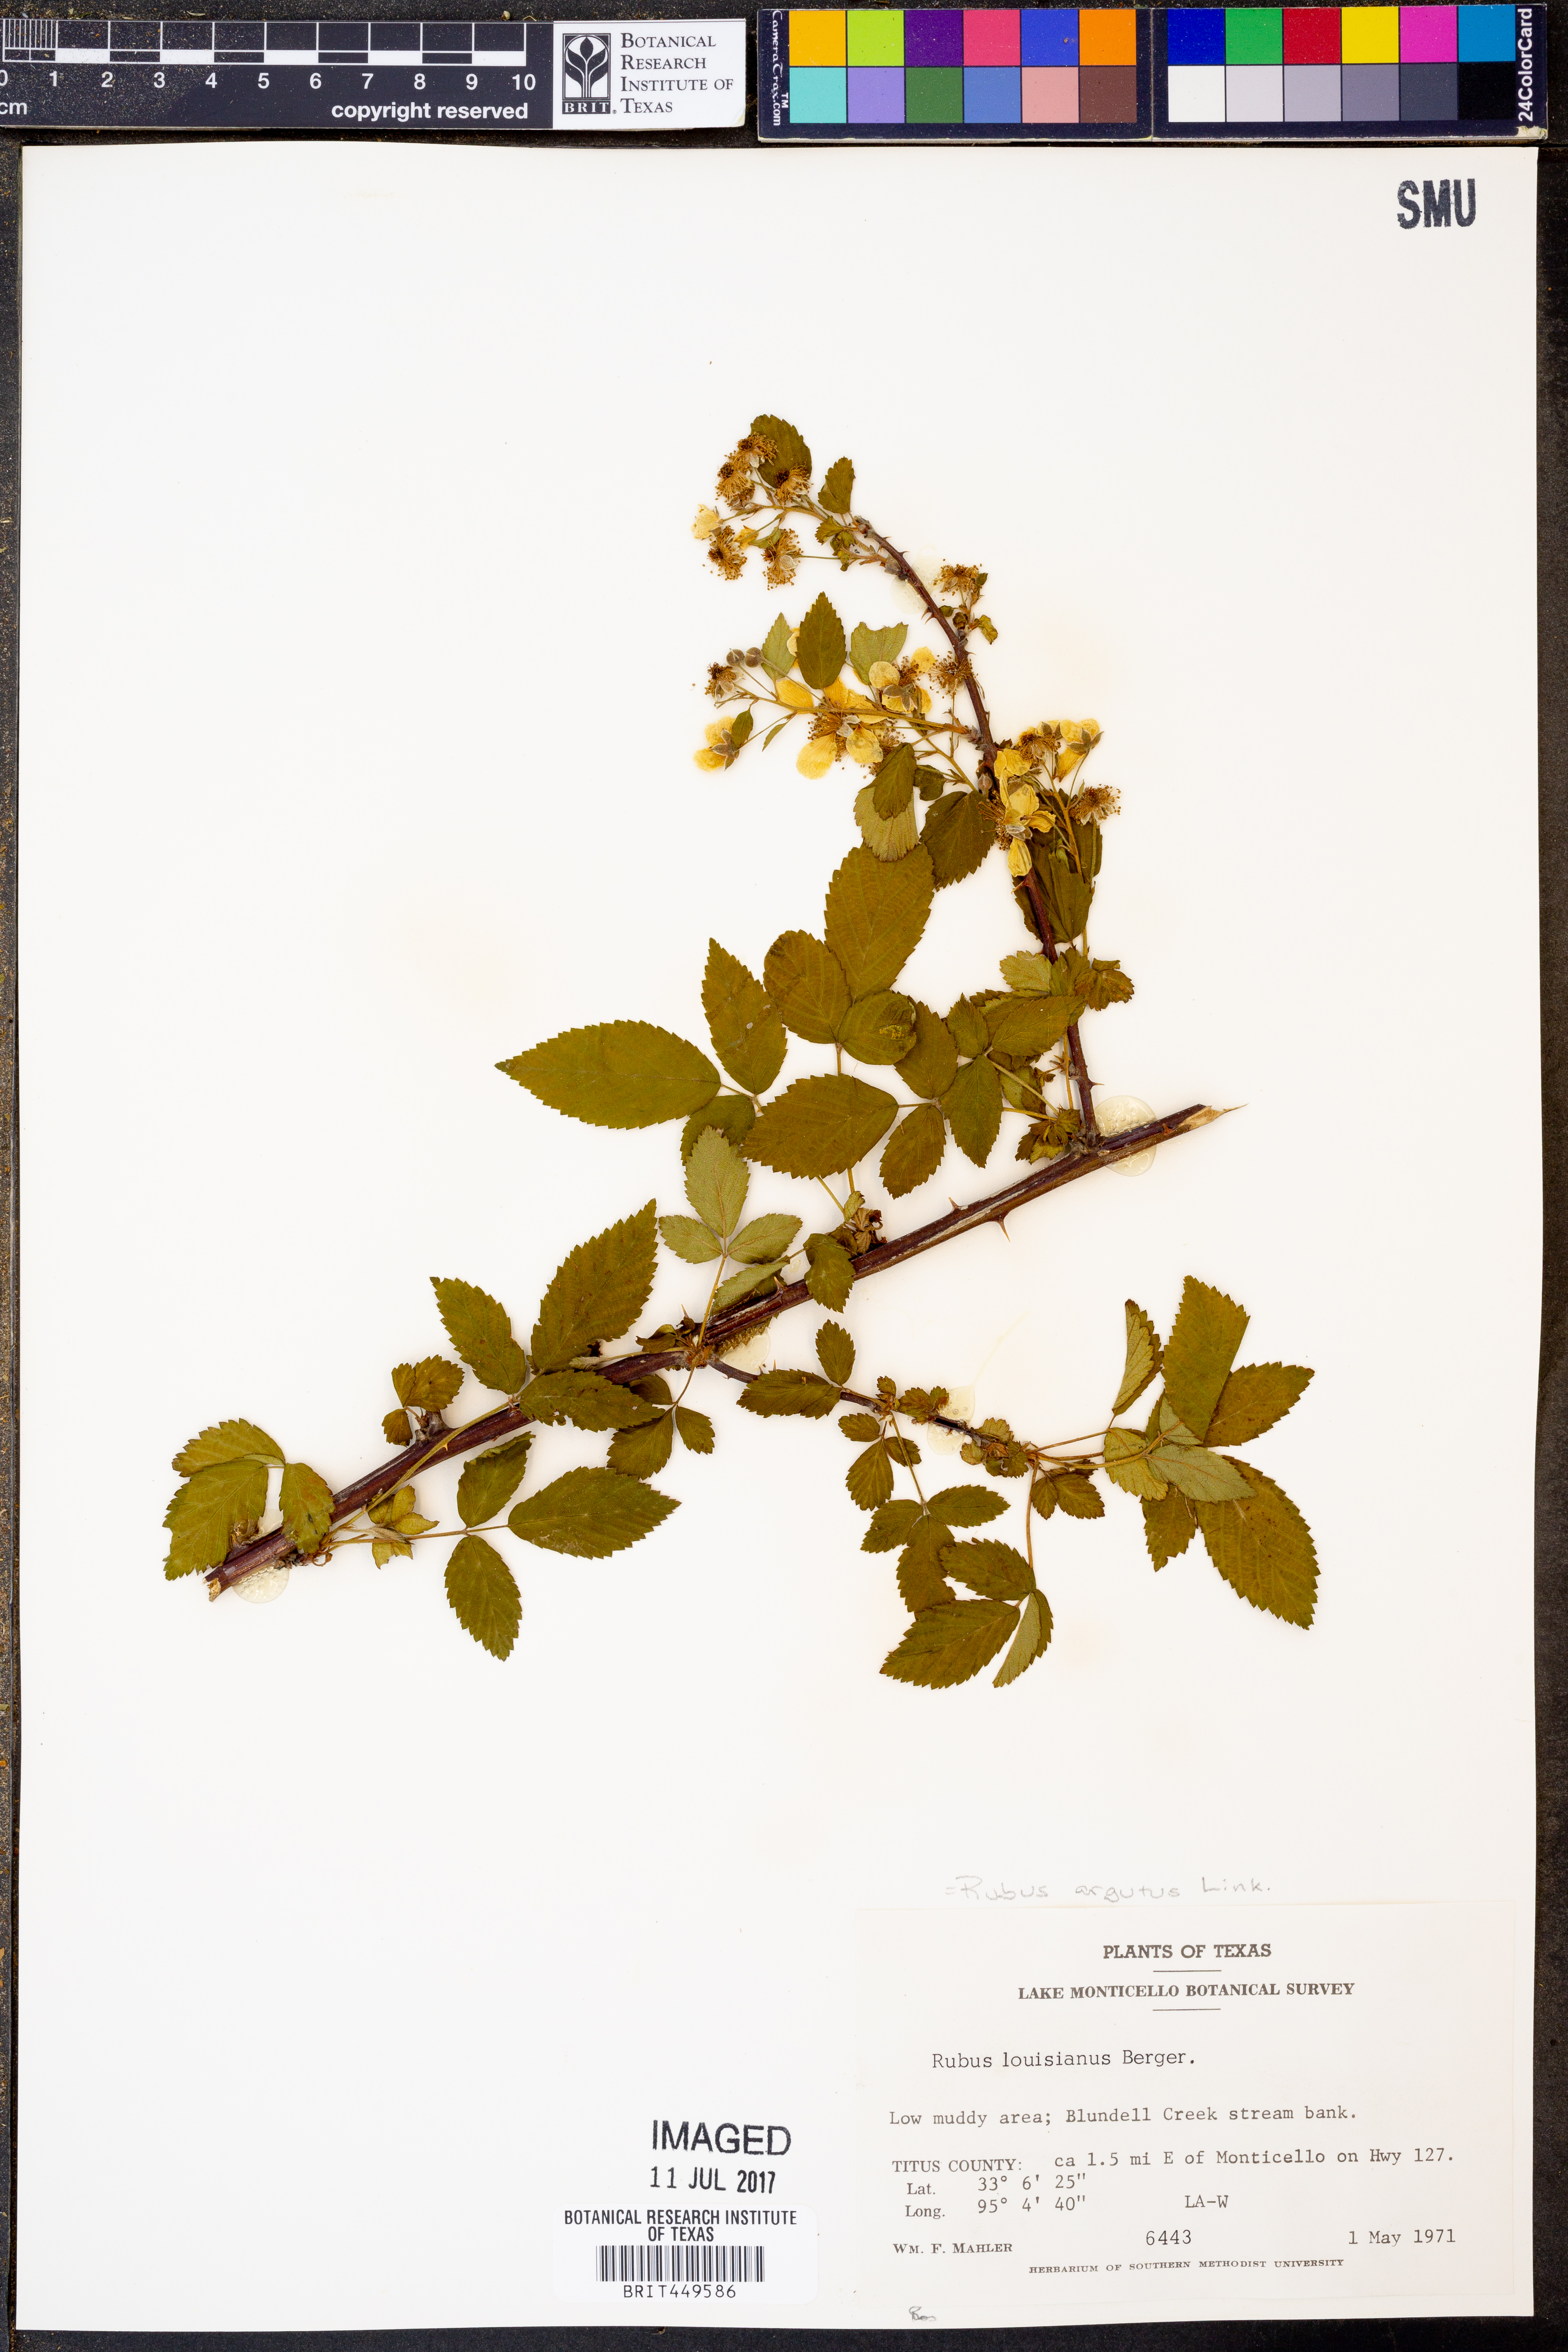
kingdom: Plantae
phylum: Tracheophyta
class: Magnoliopsida
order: Rosales
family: Rosaceae
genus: Rubus
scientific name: Rubus argutus
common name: Sawtooth blackberry
